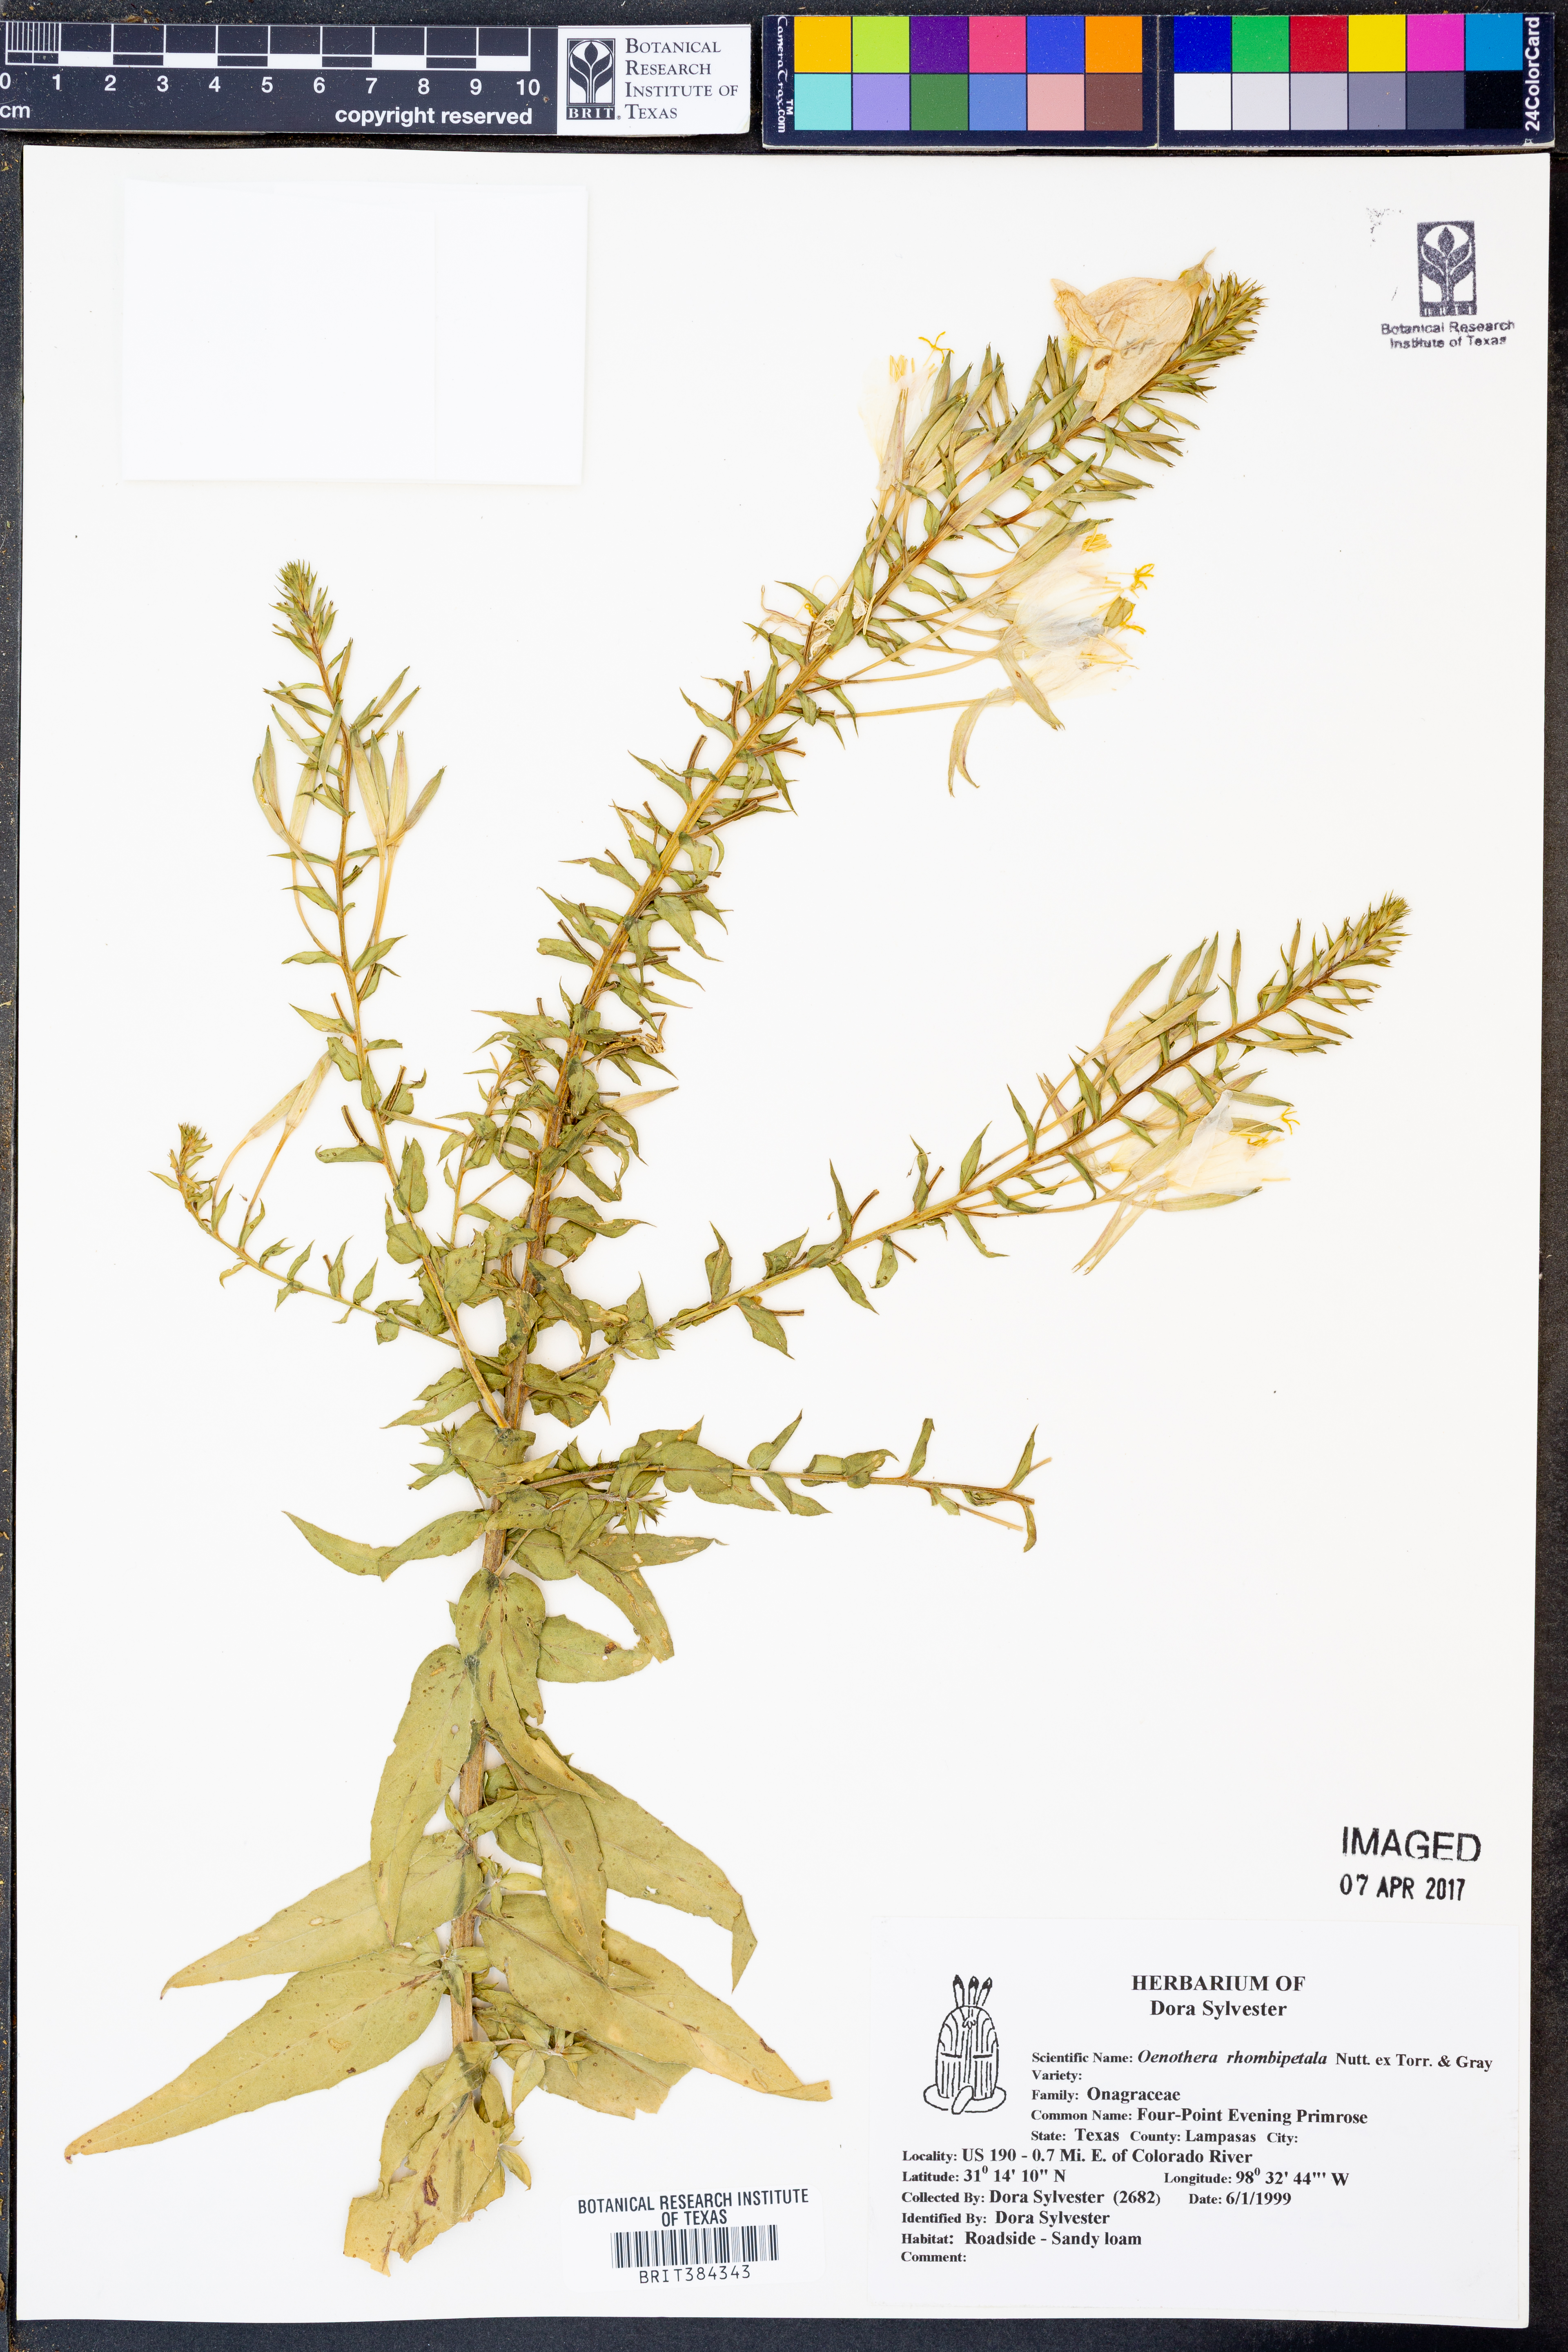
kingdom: Plantae
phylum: Tracheophyta
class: Magnoliopsida
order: Myrtales
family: Onagraceae
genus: Oenothera
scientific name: Oenothera rhombipetala
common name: Four-points evening-primrose
